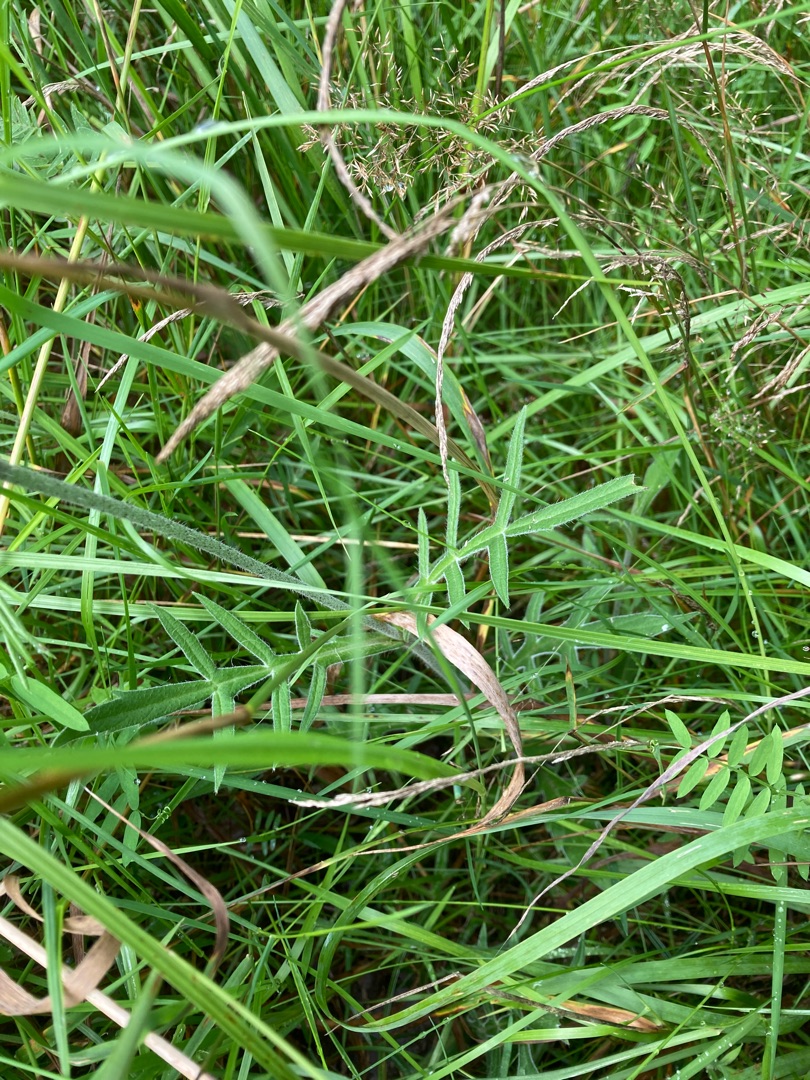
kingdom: Plantae
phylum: Tracheophyta
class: Magnoliopsida
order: Dipsacales
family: Caprifoliaceae
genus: Knautia
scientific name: Knautia arvensis
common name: Blåhat
